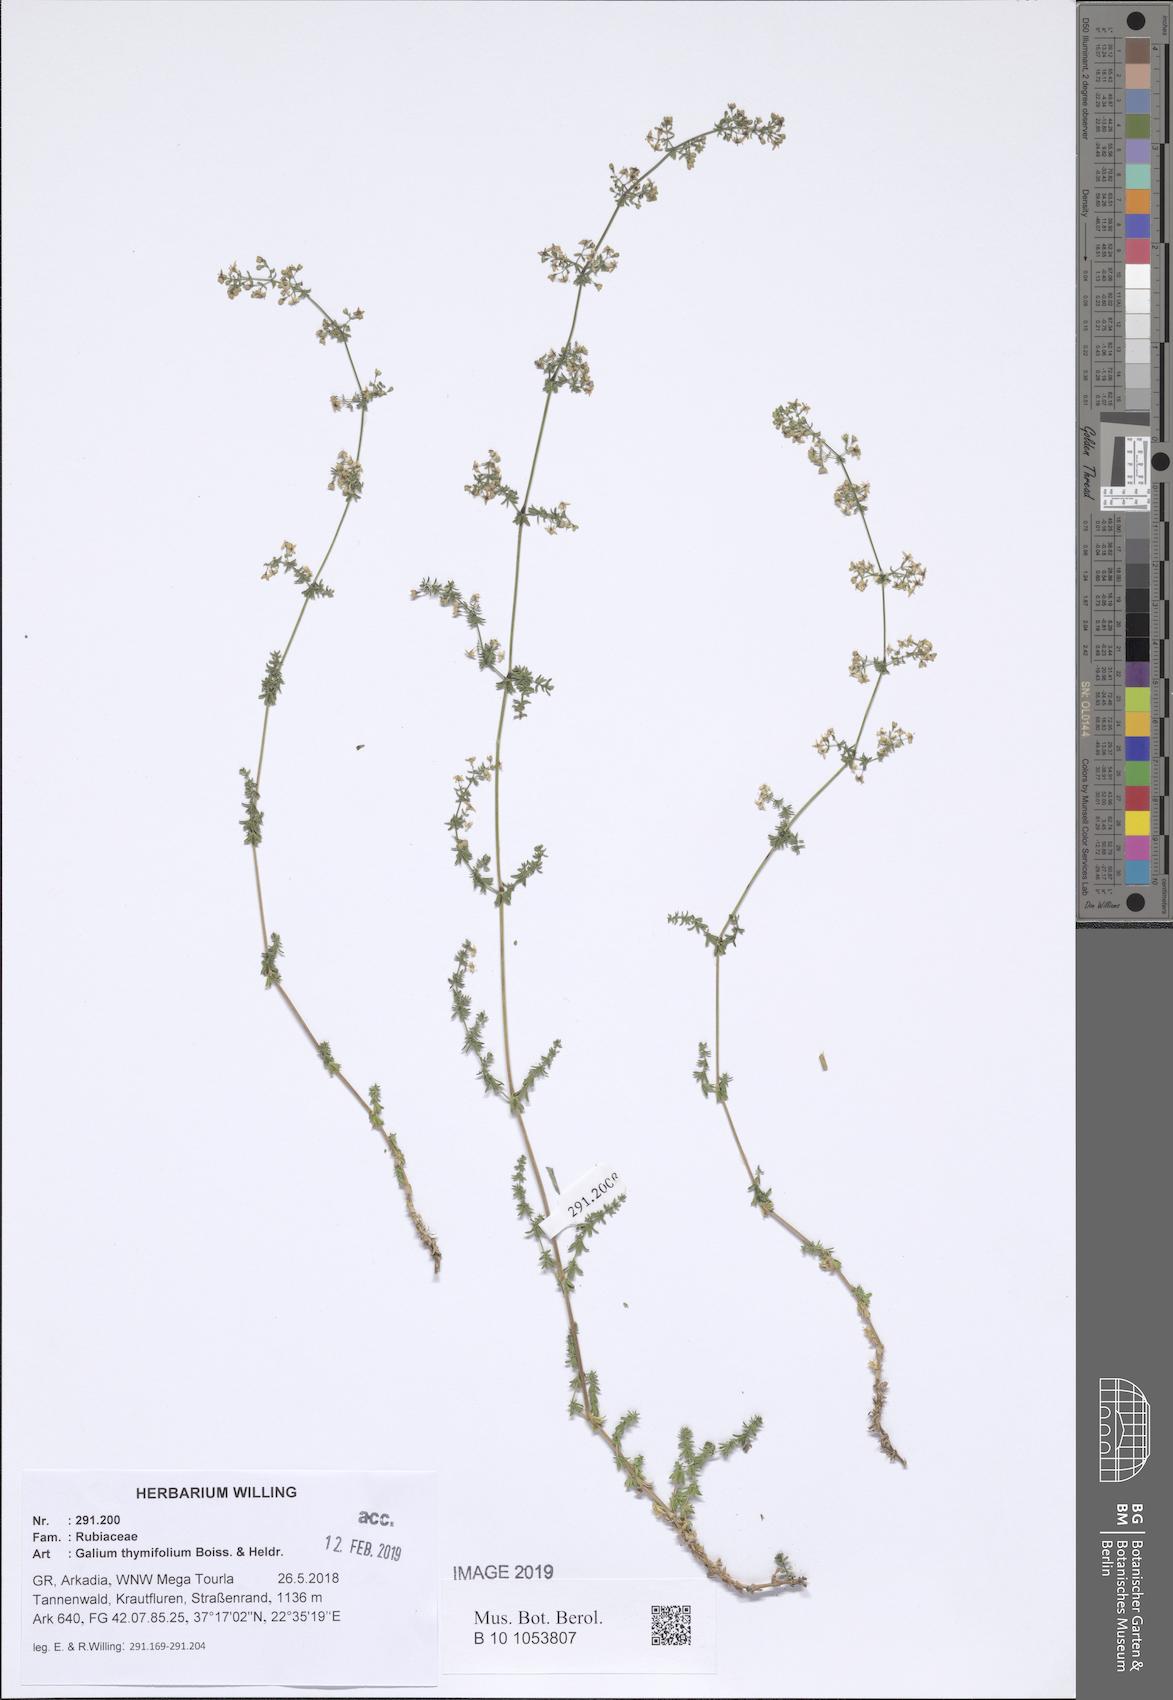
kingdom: Plantae
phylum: Tracheophyta
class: Magnoliopsida
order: Gentianales
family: Rubiaceae
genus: Galium
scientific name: Galium thymifolium
